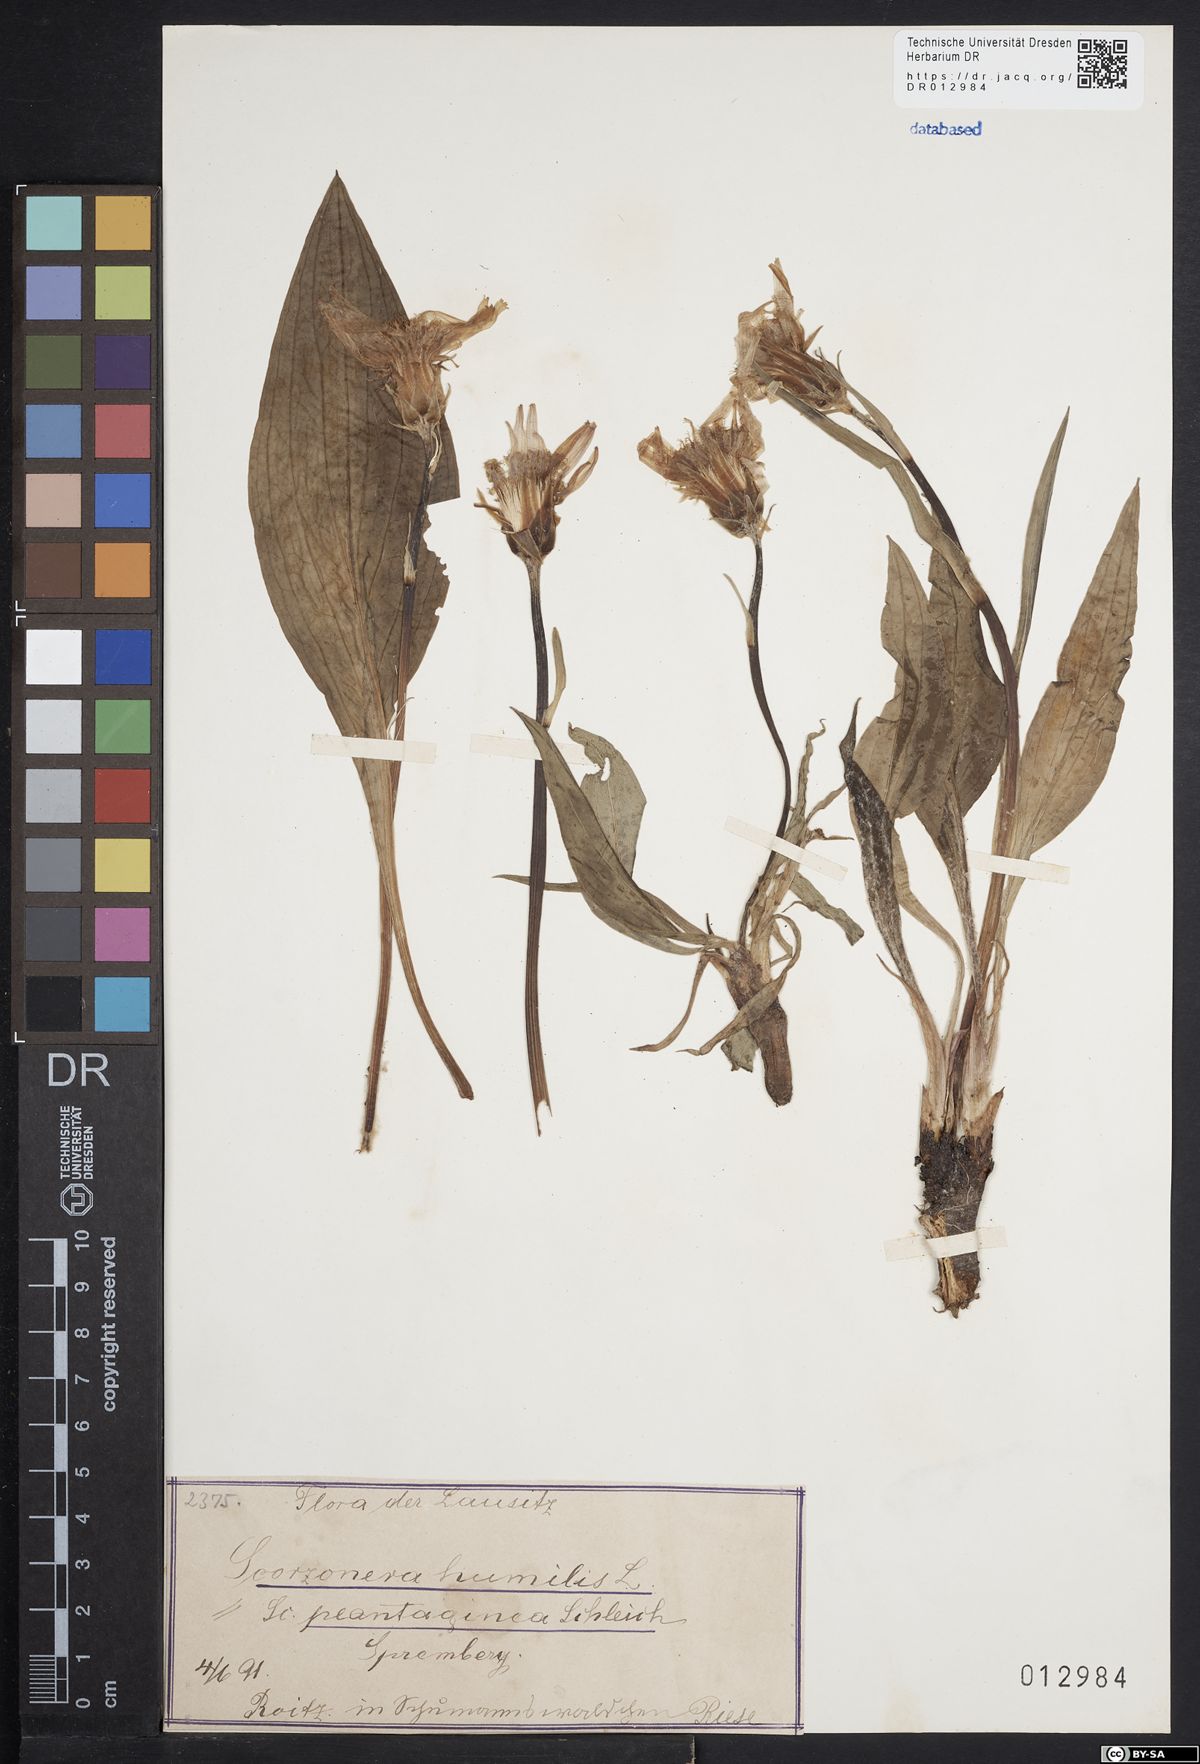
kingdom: Plantae
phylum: Tracheophyta
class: Magnoliopsida
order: Asterales
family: Asteraceae
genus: Scorzonera
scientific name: Scorzonera humilis
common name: Viper's-grass
